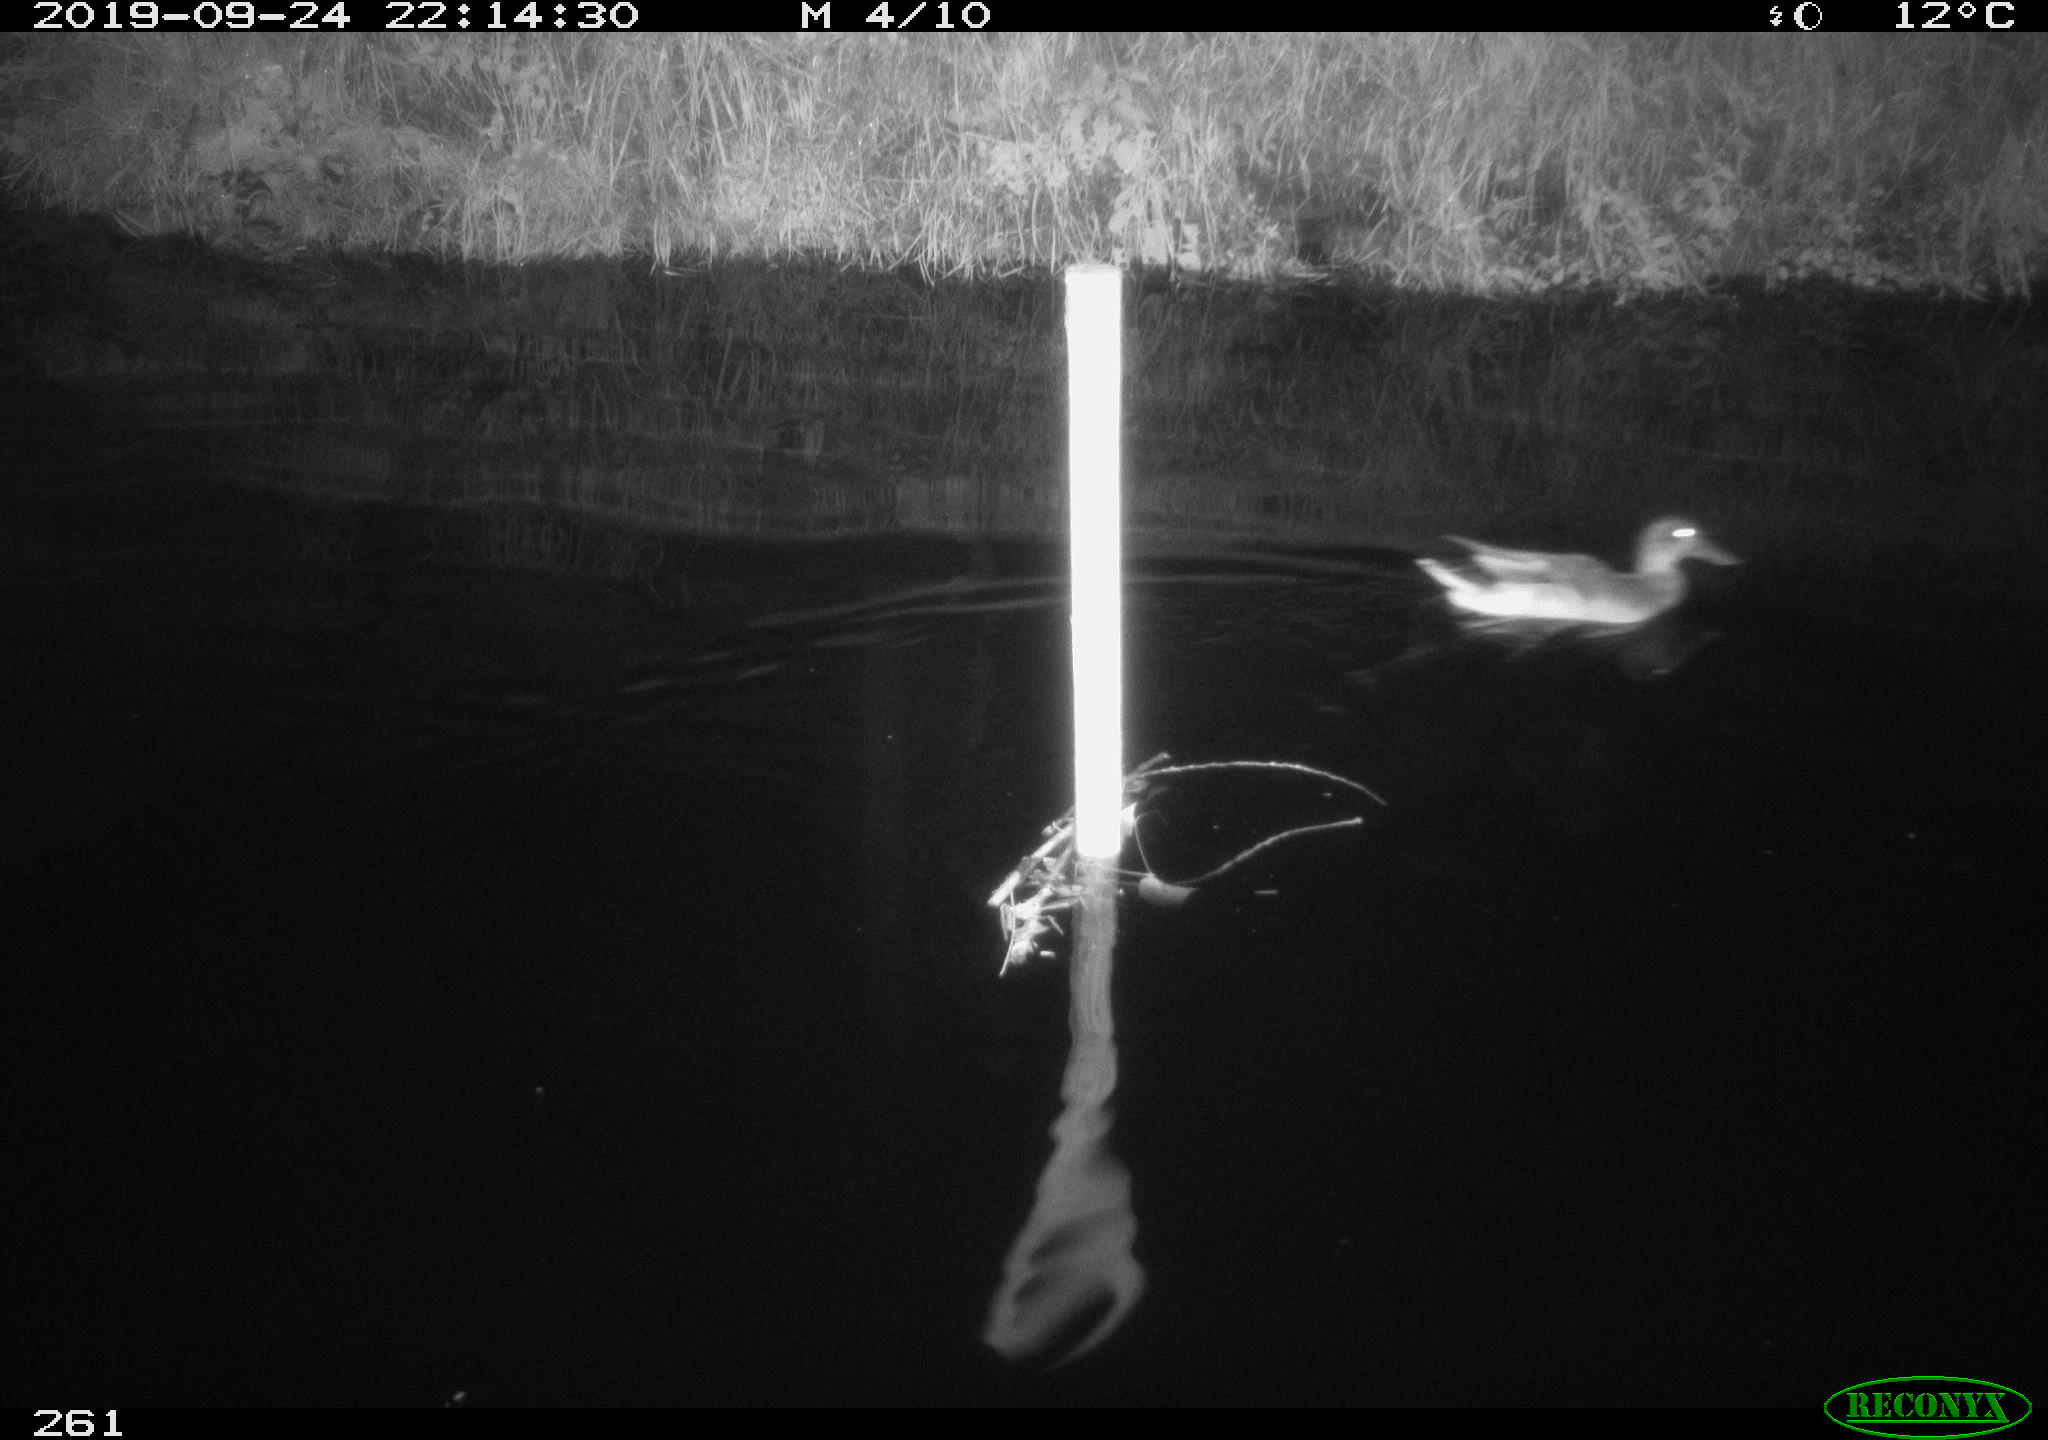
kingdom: Animalia
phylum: Chordata
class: Aves
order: Anseriformes
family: Anatidae
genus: Anas
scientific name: Anas platyrhynchos
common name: Mallard
